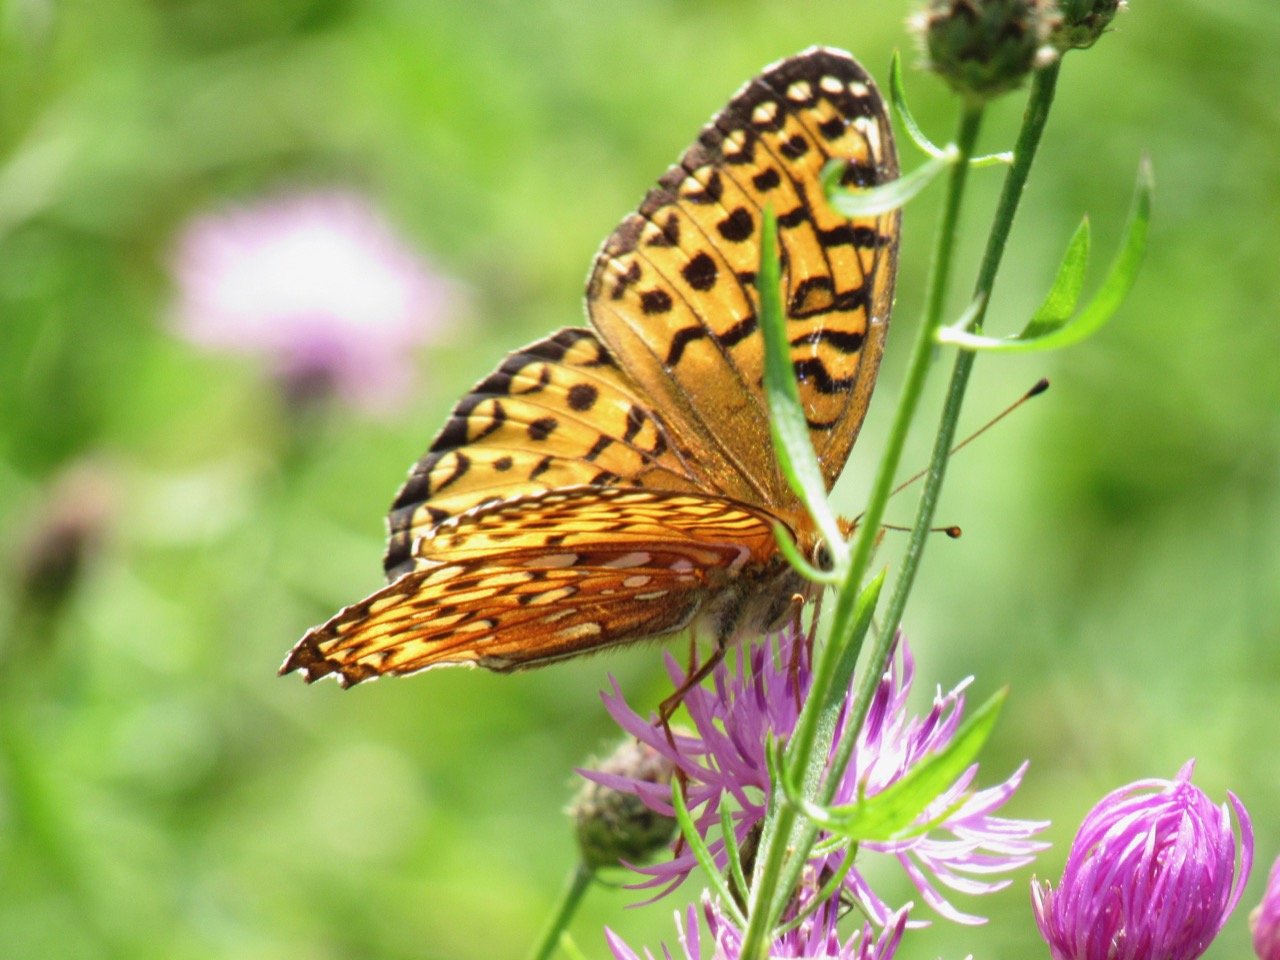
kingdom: Animalia
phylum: Arthropoda
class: Insecta
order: Lepidoptera
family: Nymphalidae
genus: Speyeria
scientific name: Speyeria atlantis
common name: Atlantis Fritillary
